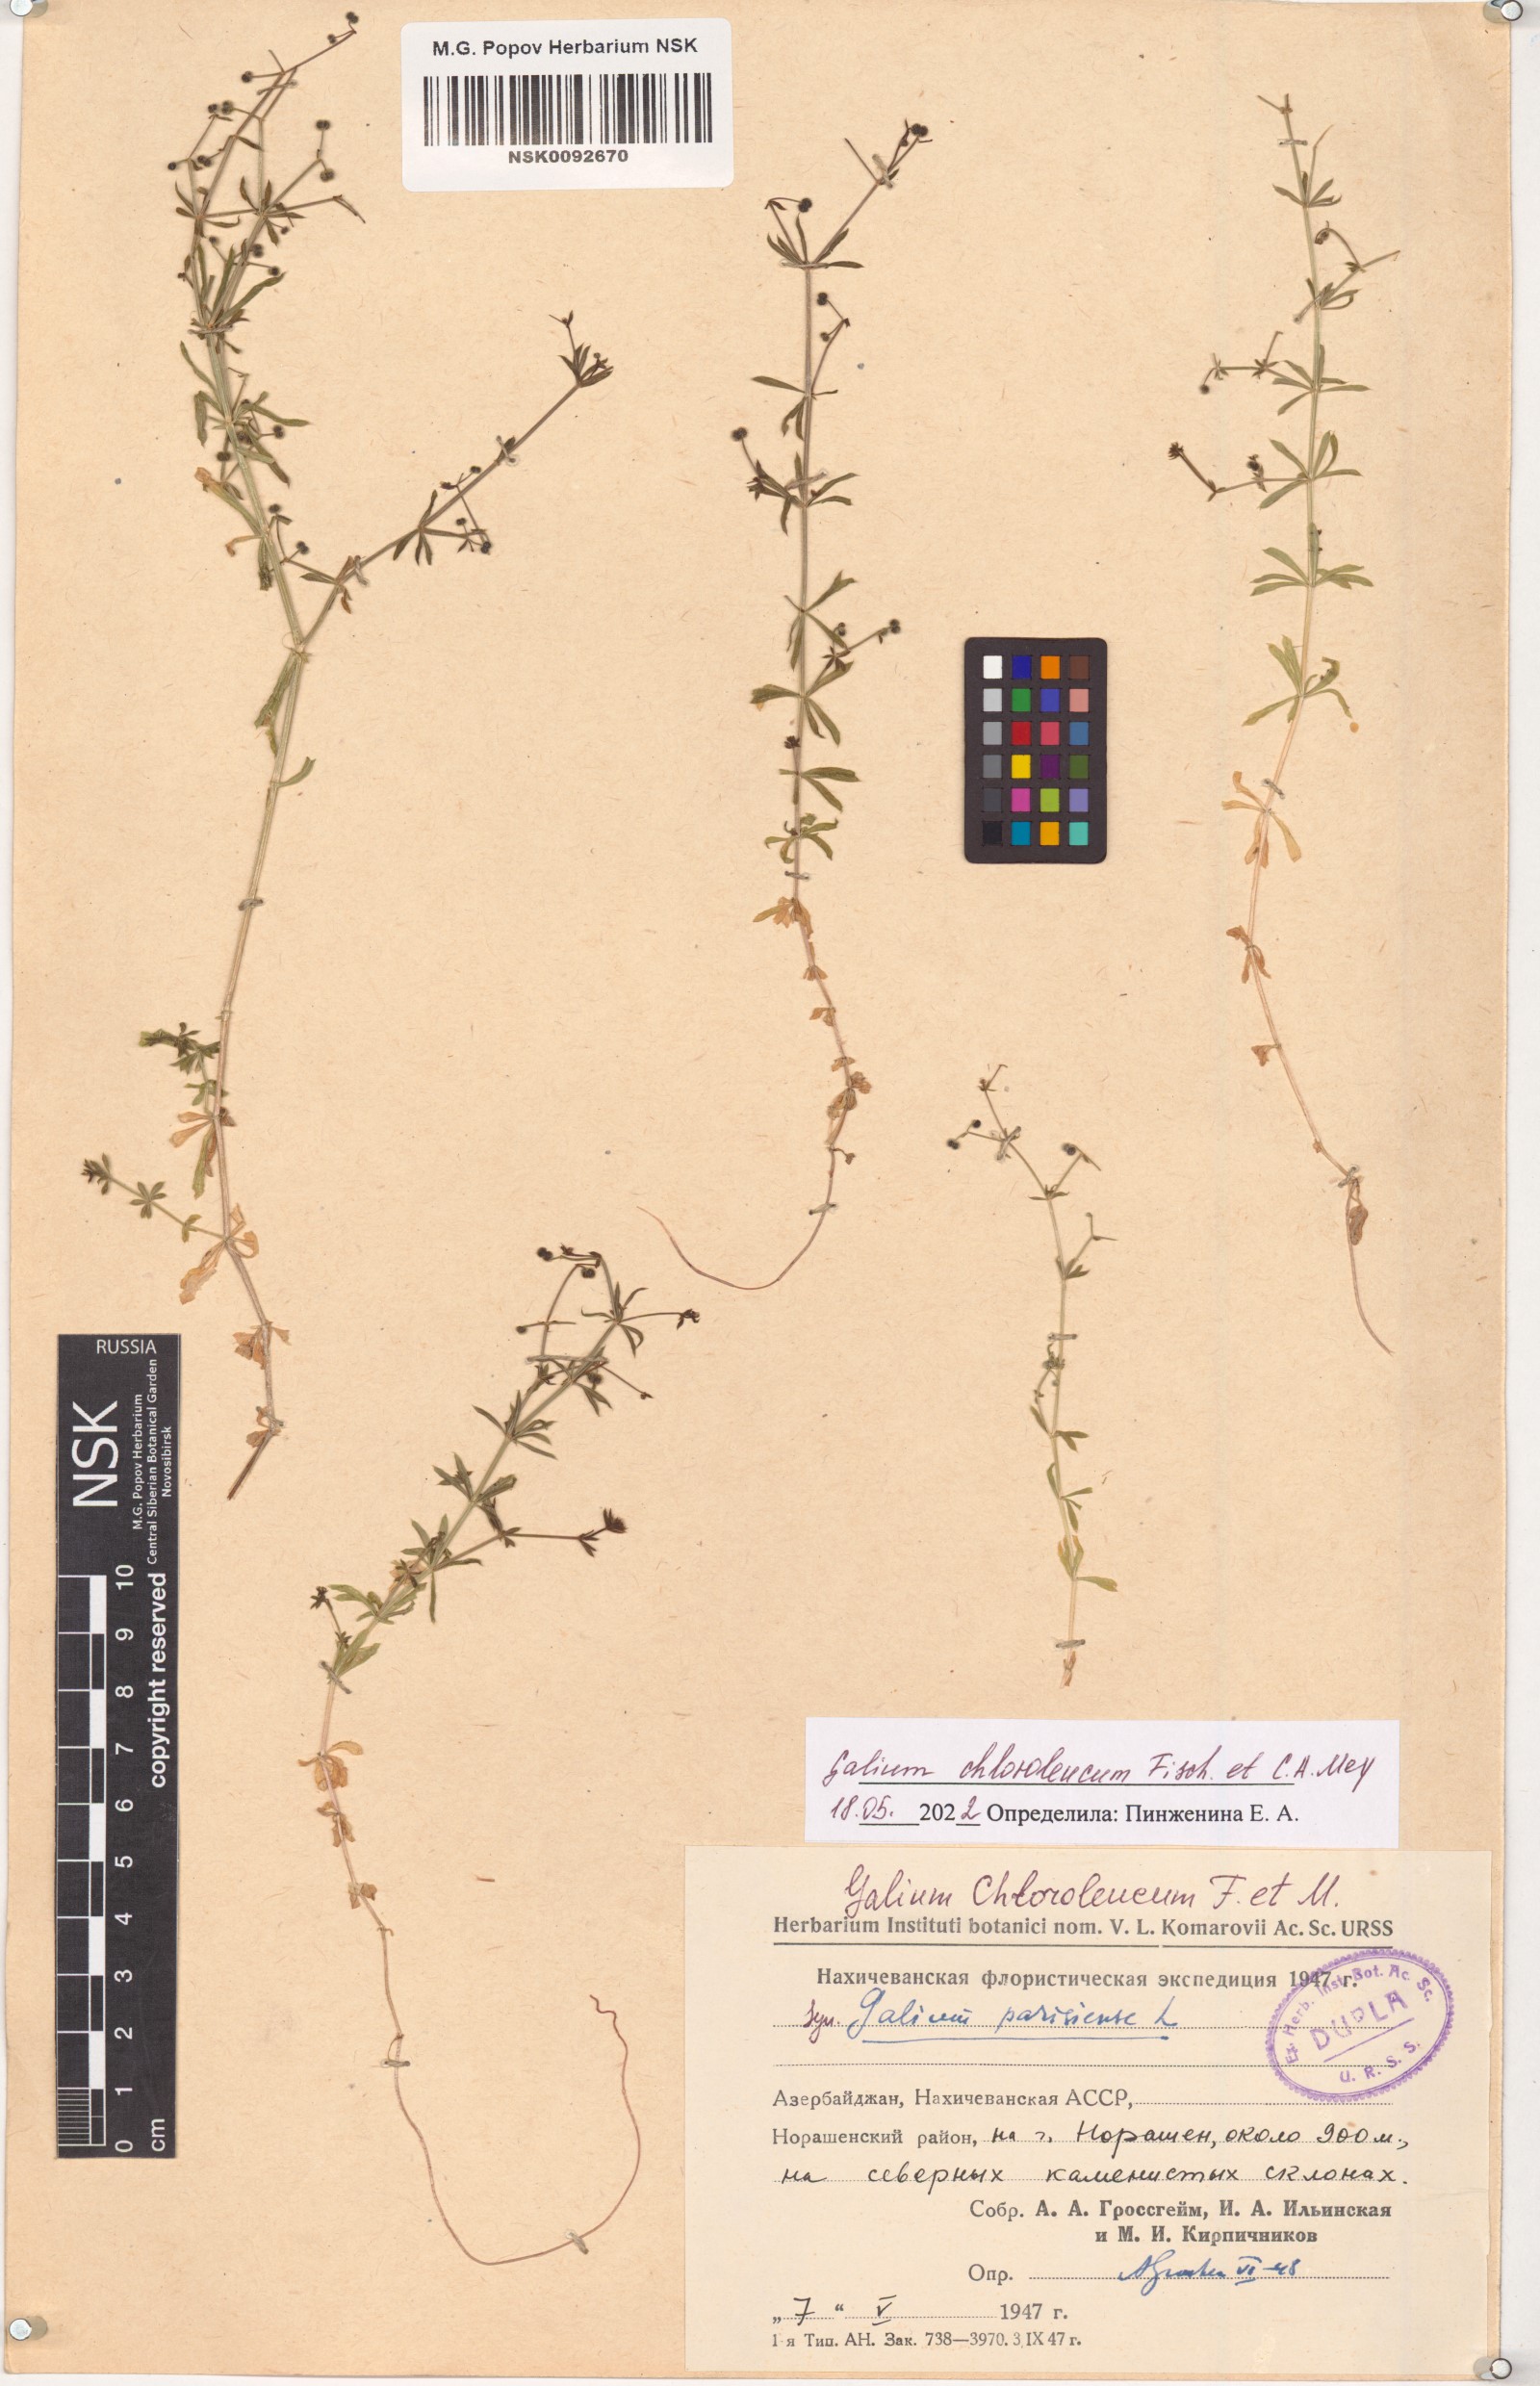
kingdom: Plantae
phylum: Tracheophyta
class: Magnoliopsida
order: Gentianales
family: Rubiaceae
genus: Galium
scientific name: Galium chloroleucum
